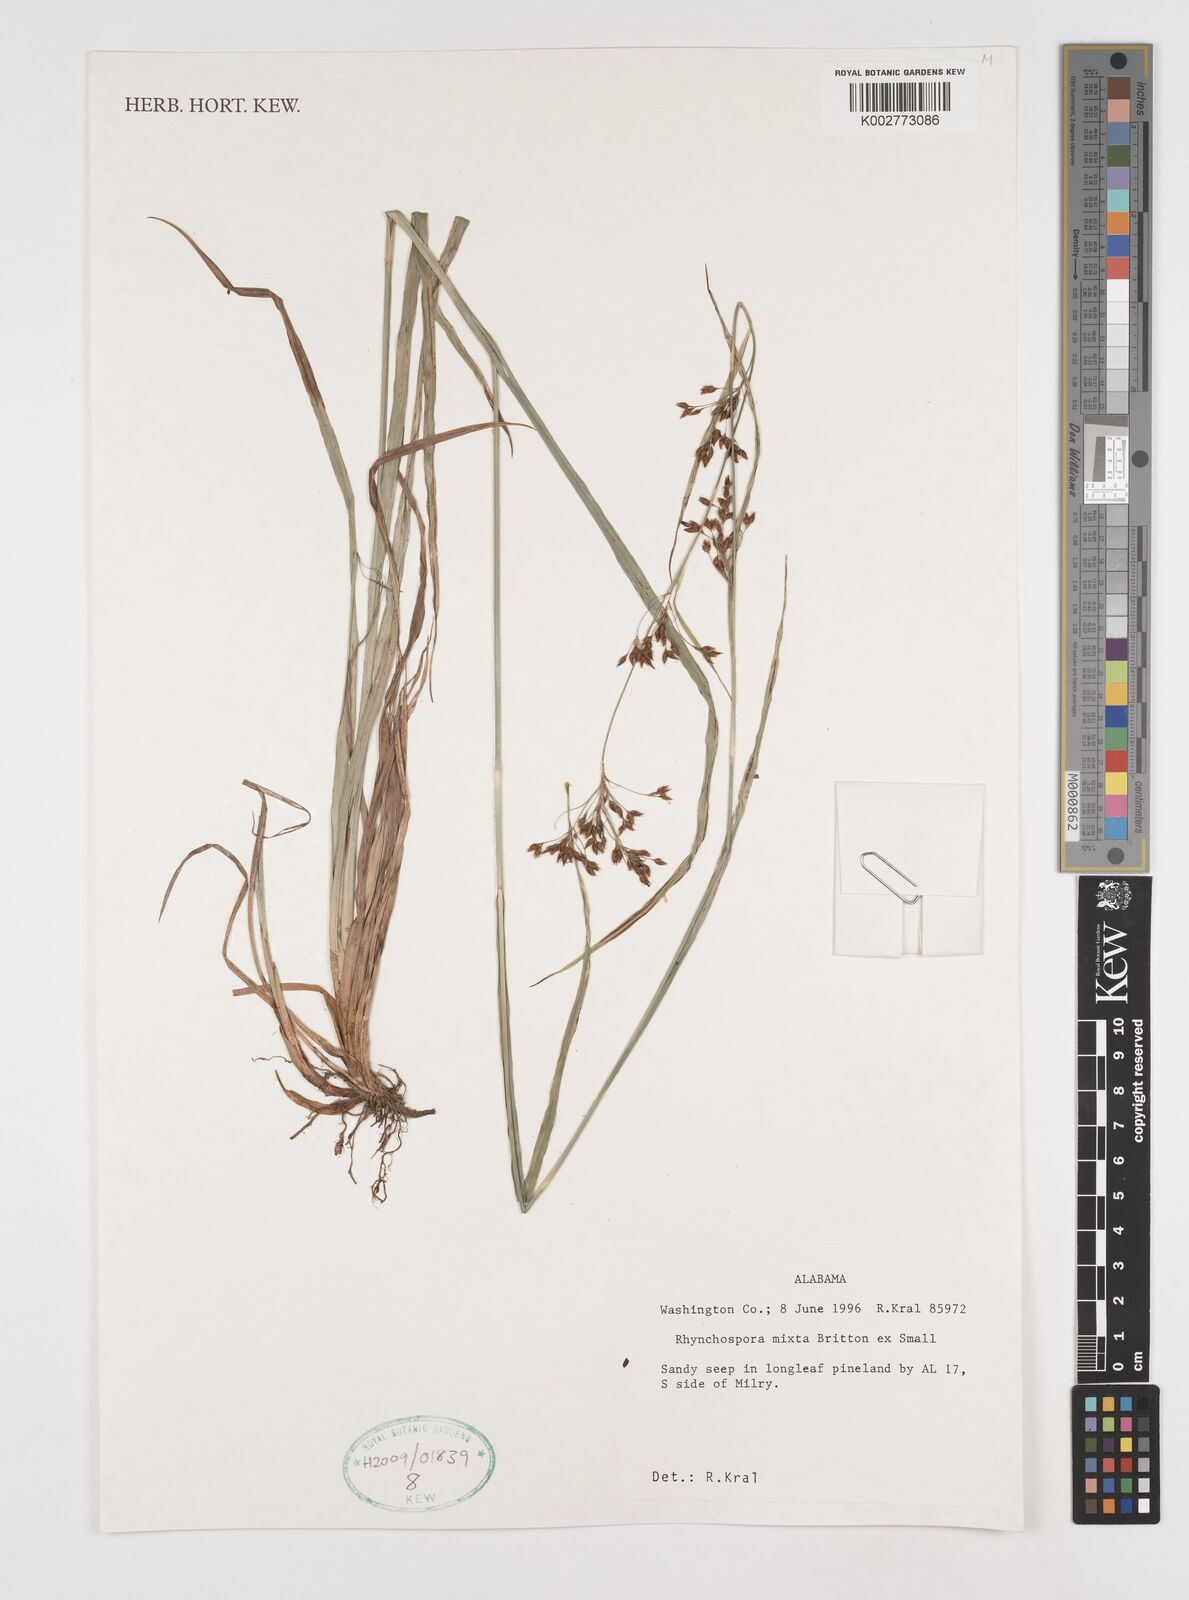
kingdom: Plantae
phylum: Tracheophyta
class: Liliopsida
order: Poales
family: Cyperaceae
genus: Rhynchospora
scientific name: Rhynchospora mixta
